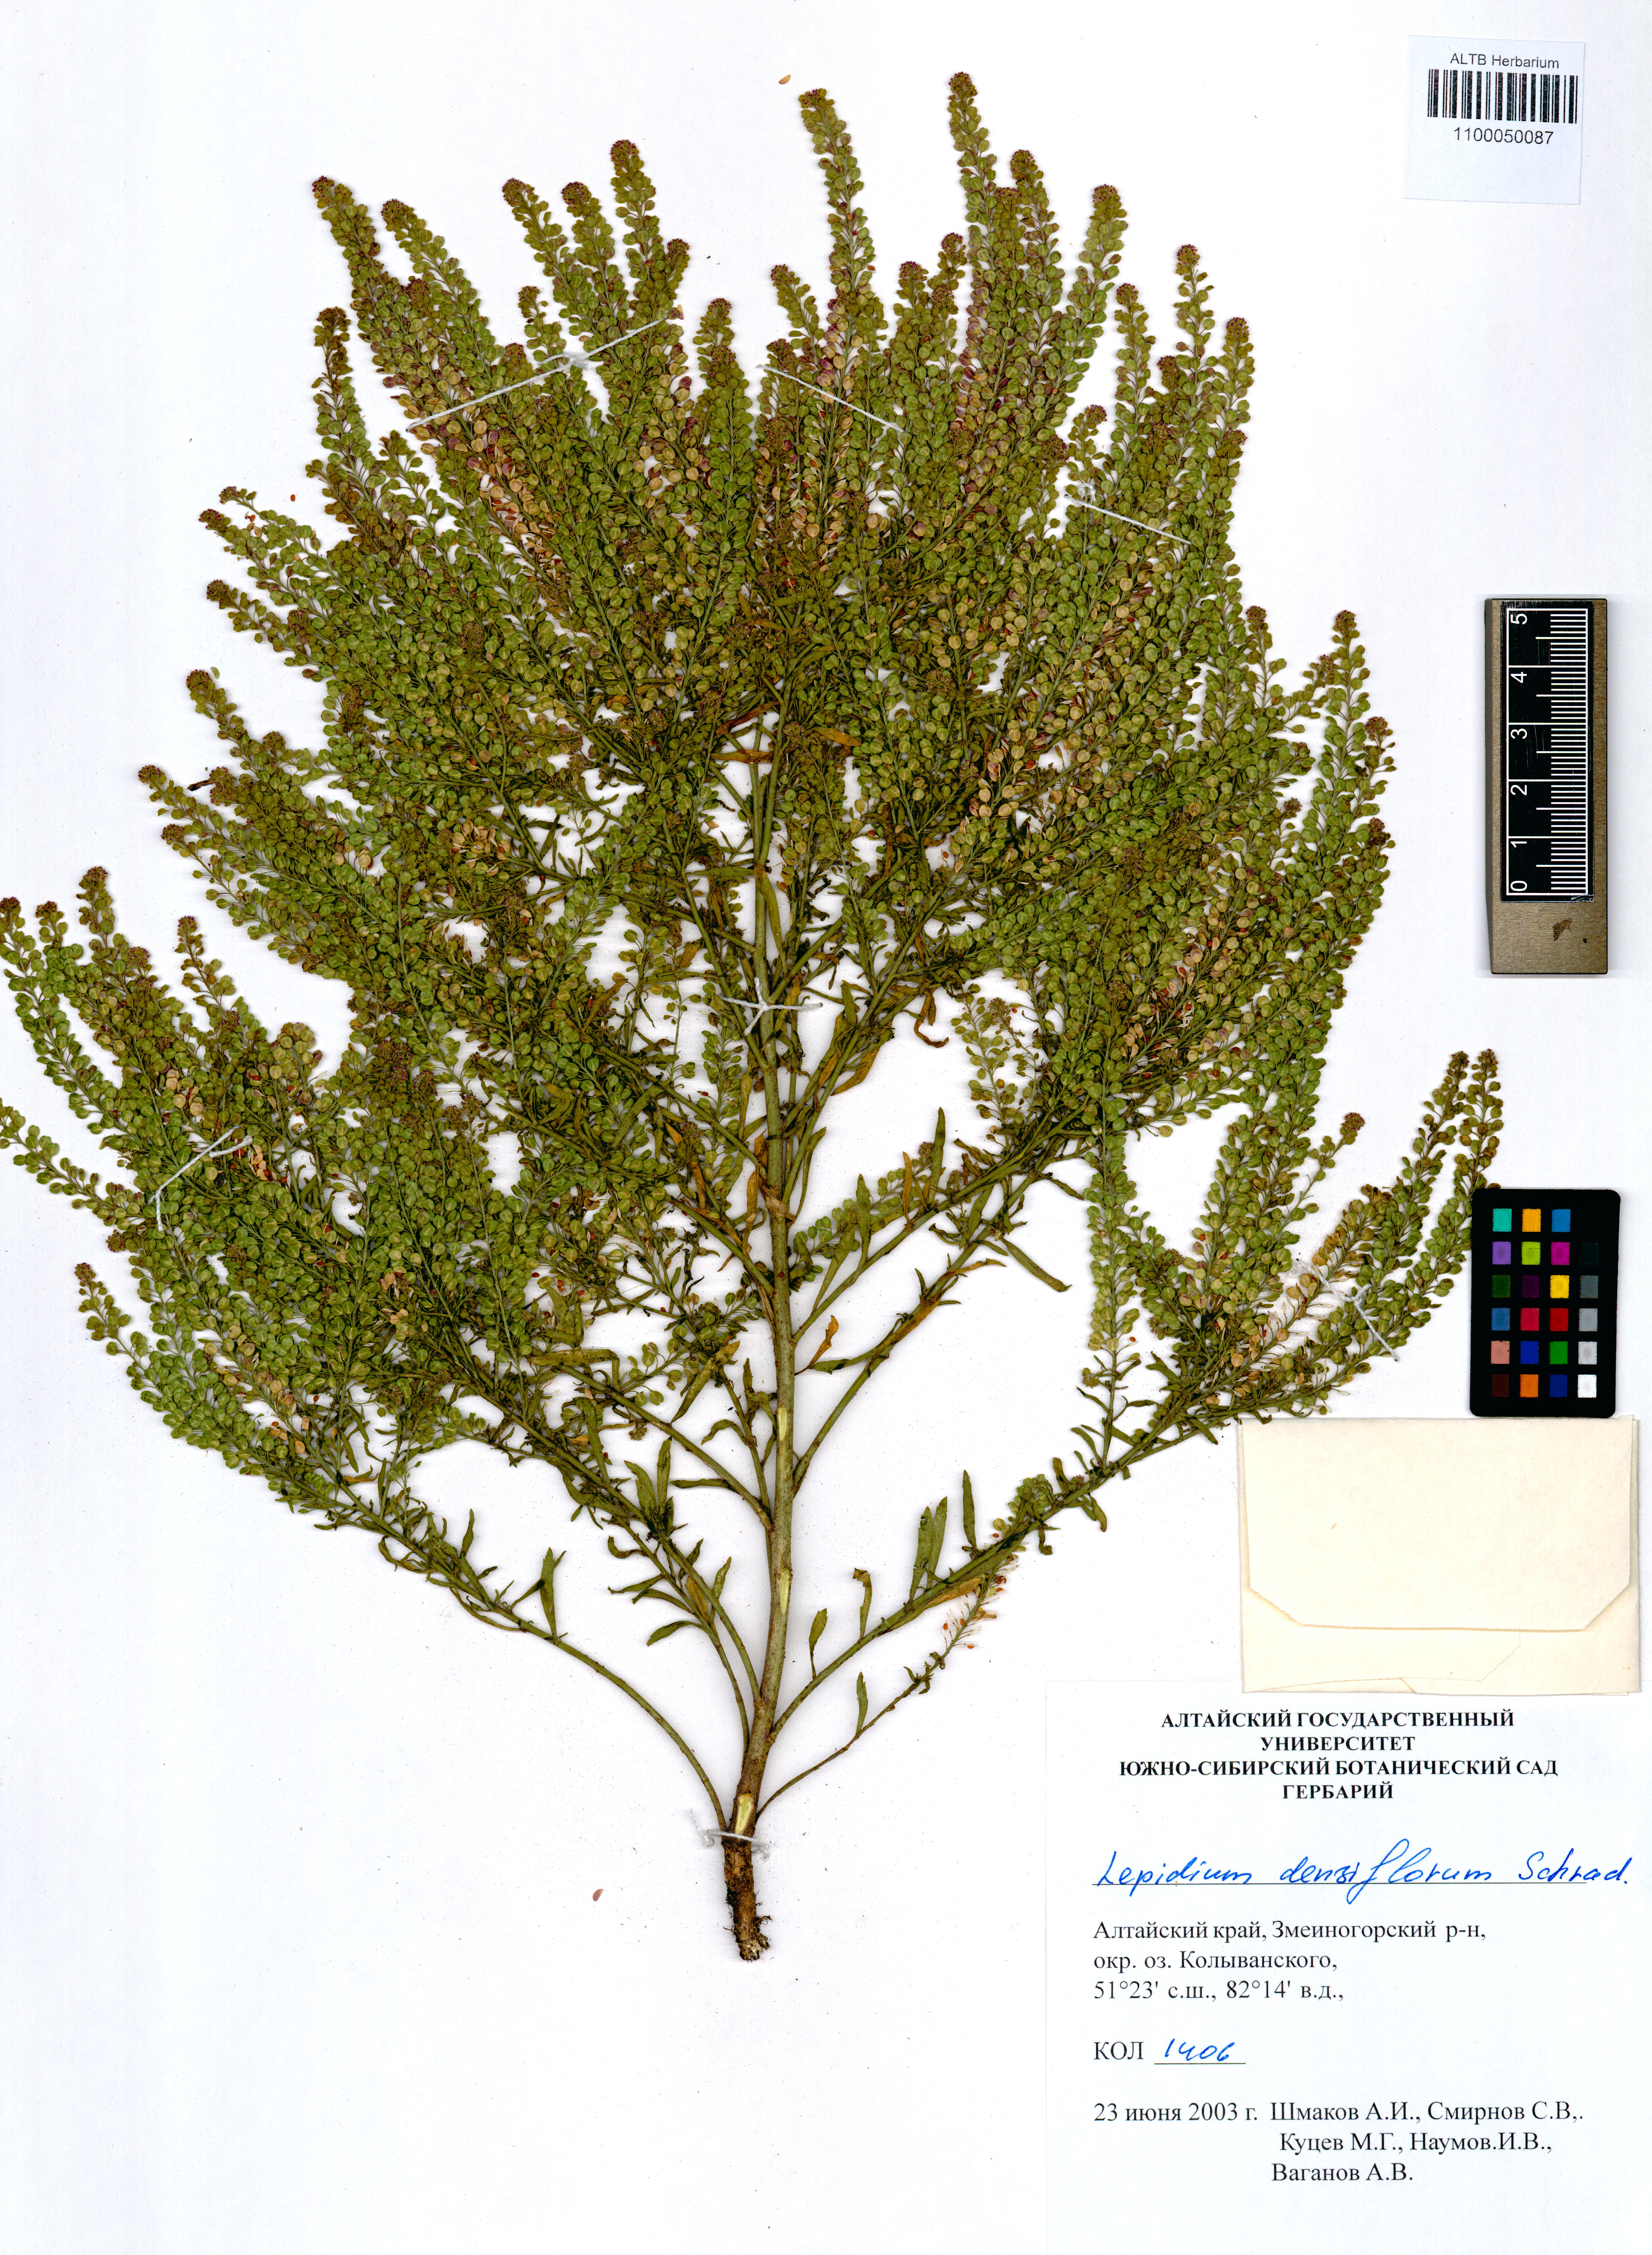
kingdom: Plantae
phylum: Tracheophyta
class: Magnoliopsida
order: Brassicales
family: Brassicaceae
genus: Lepidium
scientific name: Lepidium densiflorum
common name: Miner's pepperwort
